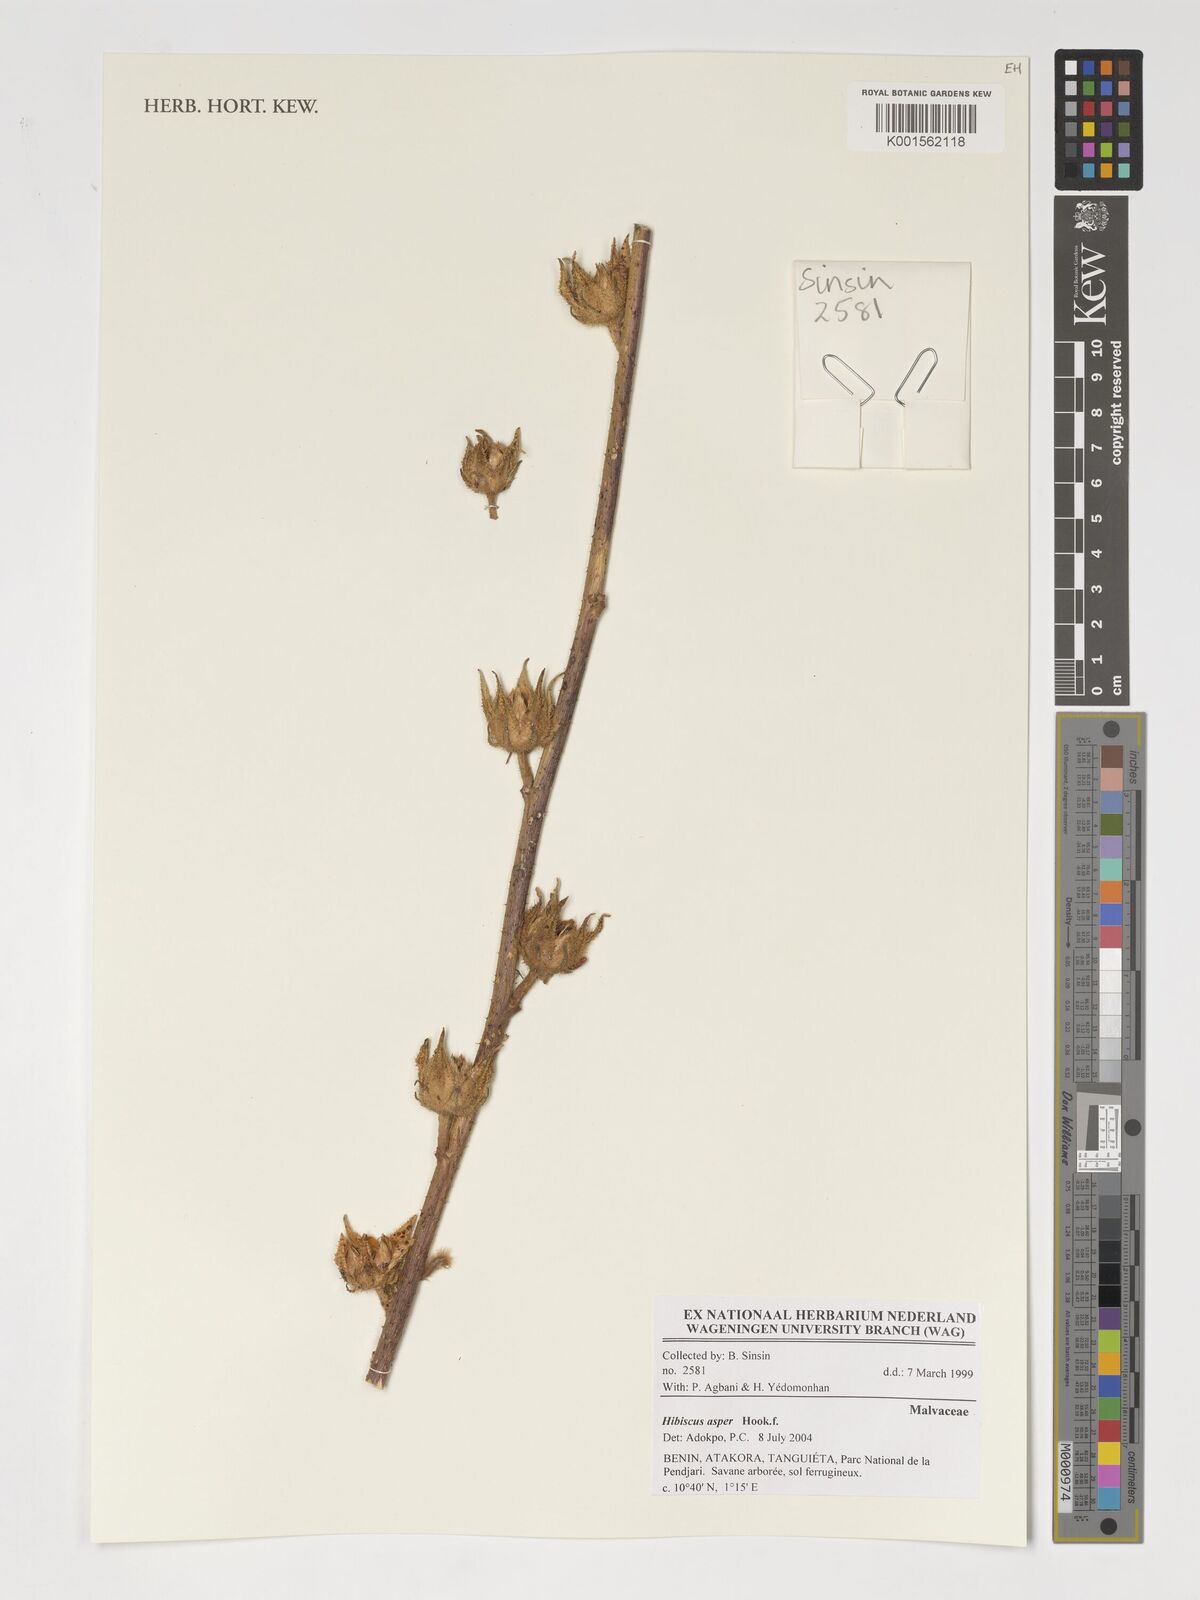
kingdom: Plantae
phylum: Tracheophyta
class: Magnoliopsida
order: Malvales
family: Malvaceae
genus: Hibiscus
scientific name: Hibiscus cannabinus
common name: Brown indianhemp
